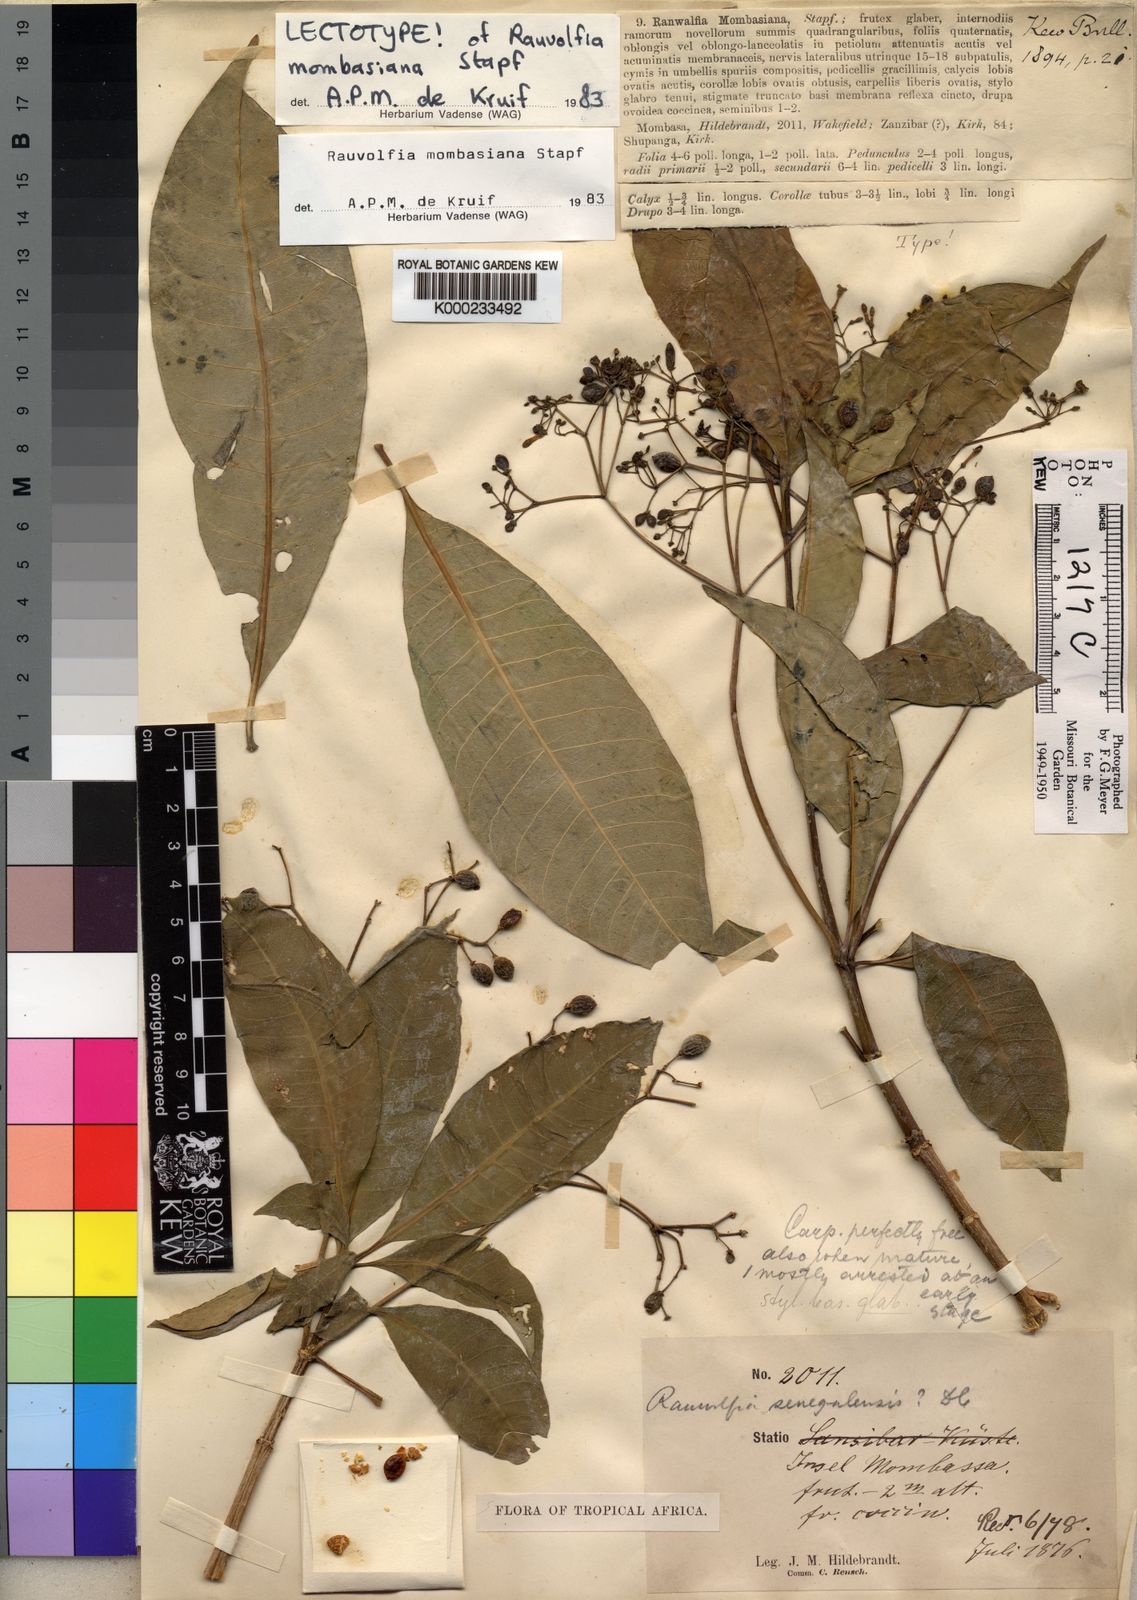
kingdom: Plantae
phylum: Tracheophyta
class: Magnoliopsida
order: Gentianales
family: Apocynaceae
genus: Rauvolfia
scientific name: Rauvolfia mombasiana
